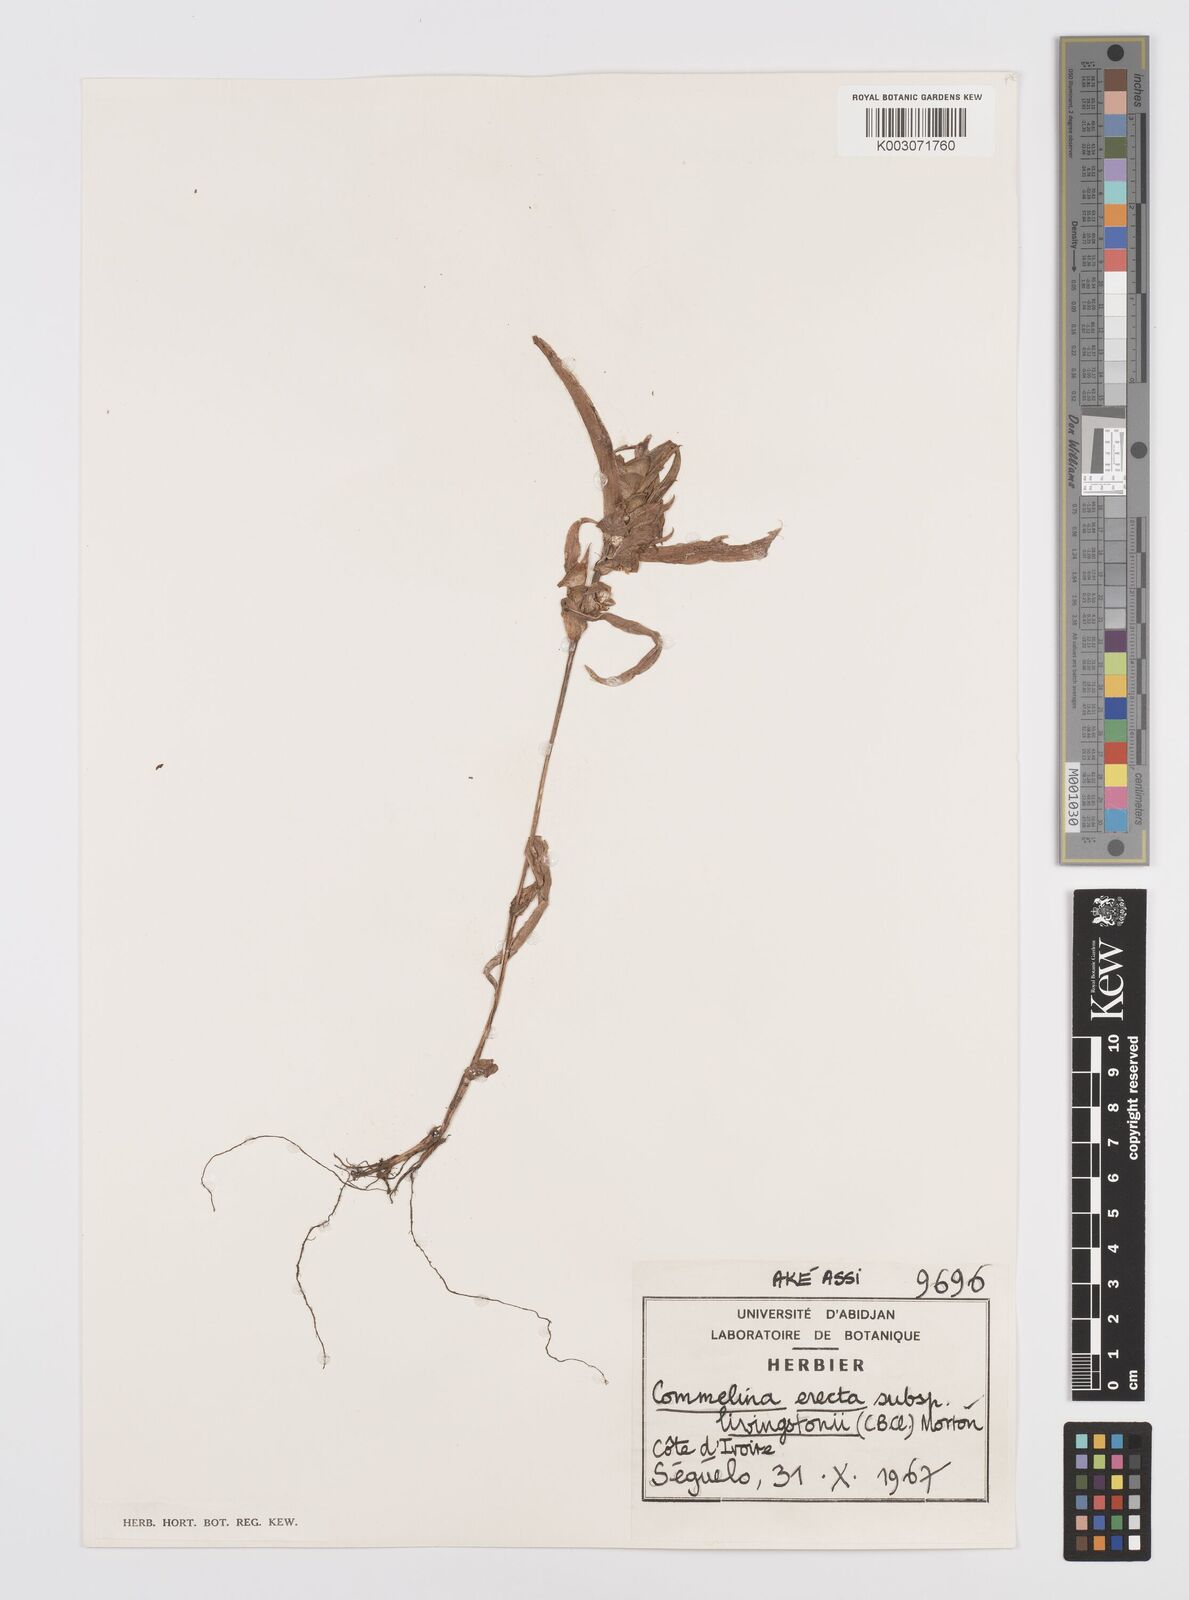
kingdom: Plantae
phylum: Tracheophyta
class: Liliopsida
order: Commelinales
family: Commelinaceae
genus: Commelina
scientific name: Commelina erecta
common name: Blousel blommetjie
